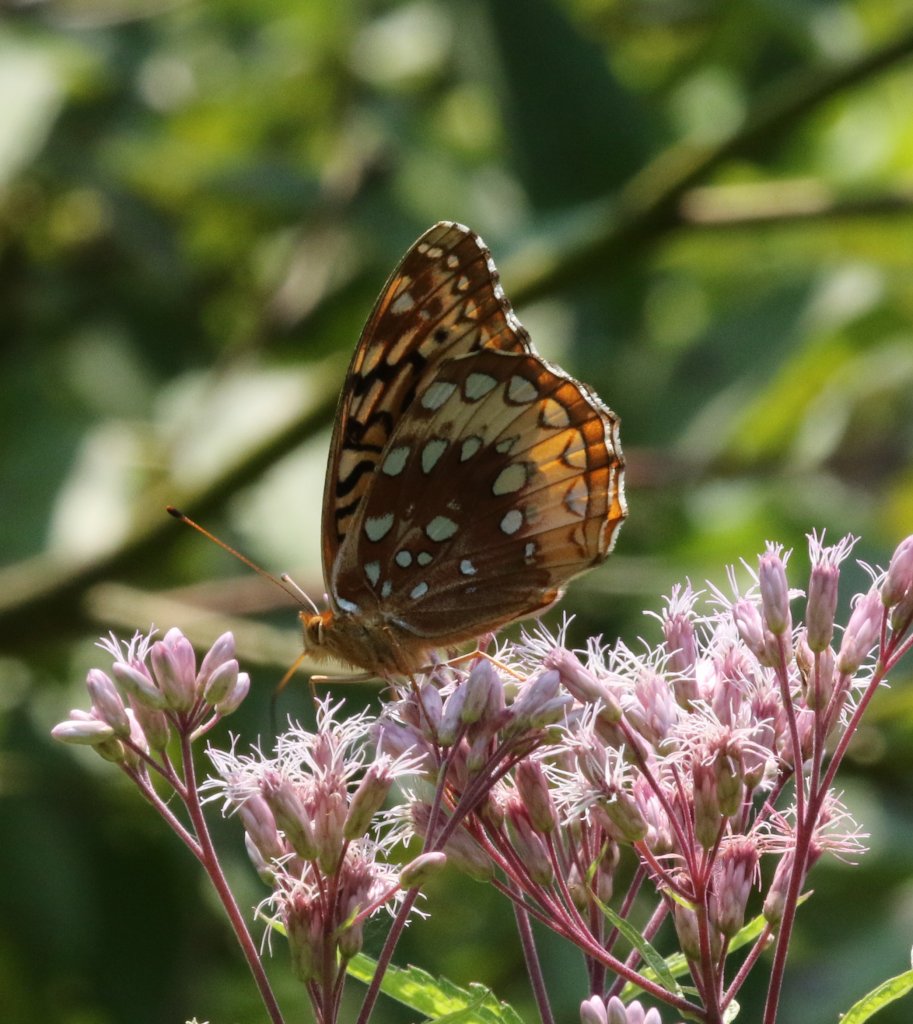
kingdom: Animalia
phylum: Arthropoda
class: Insecta
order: Lepidoptera
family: Nymphalidae
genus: Speyeria
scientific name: Speyeria cybele
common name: Great Spangled Fritillary
